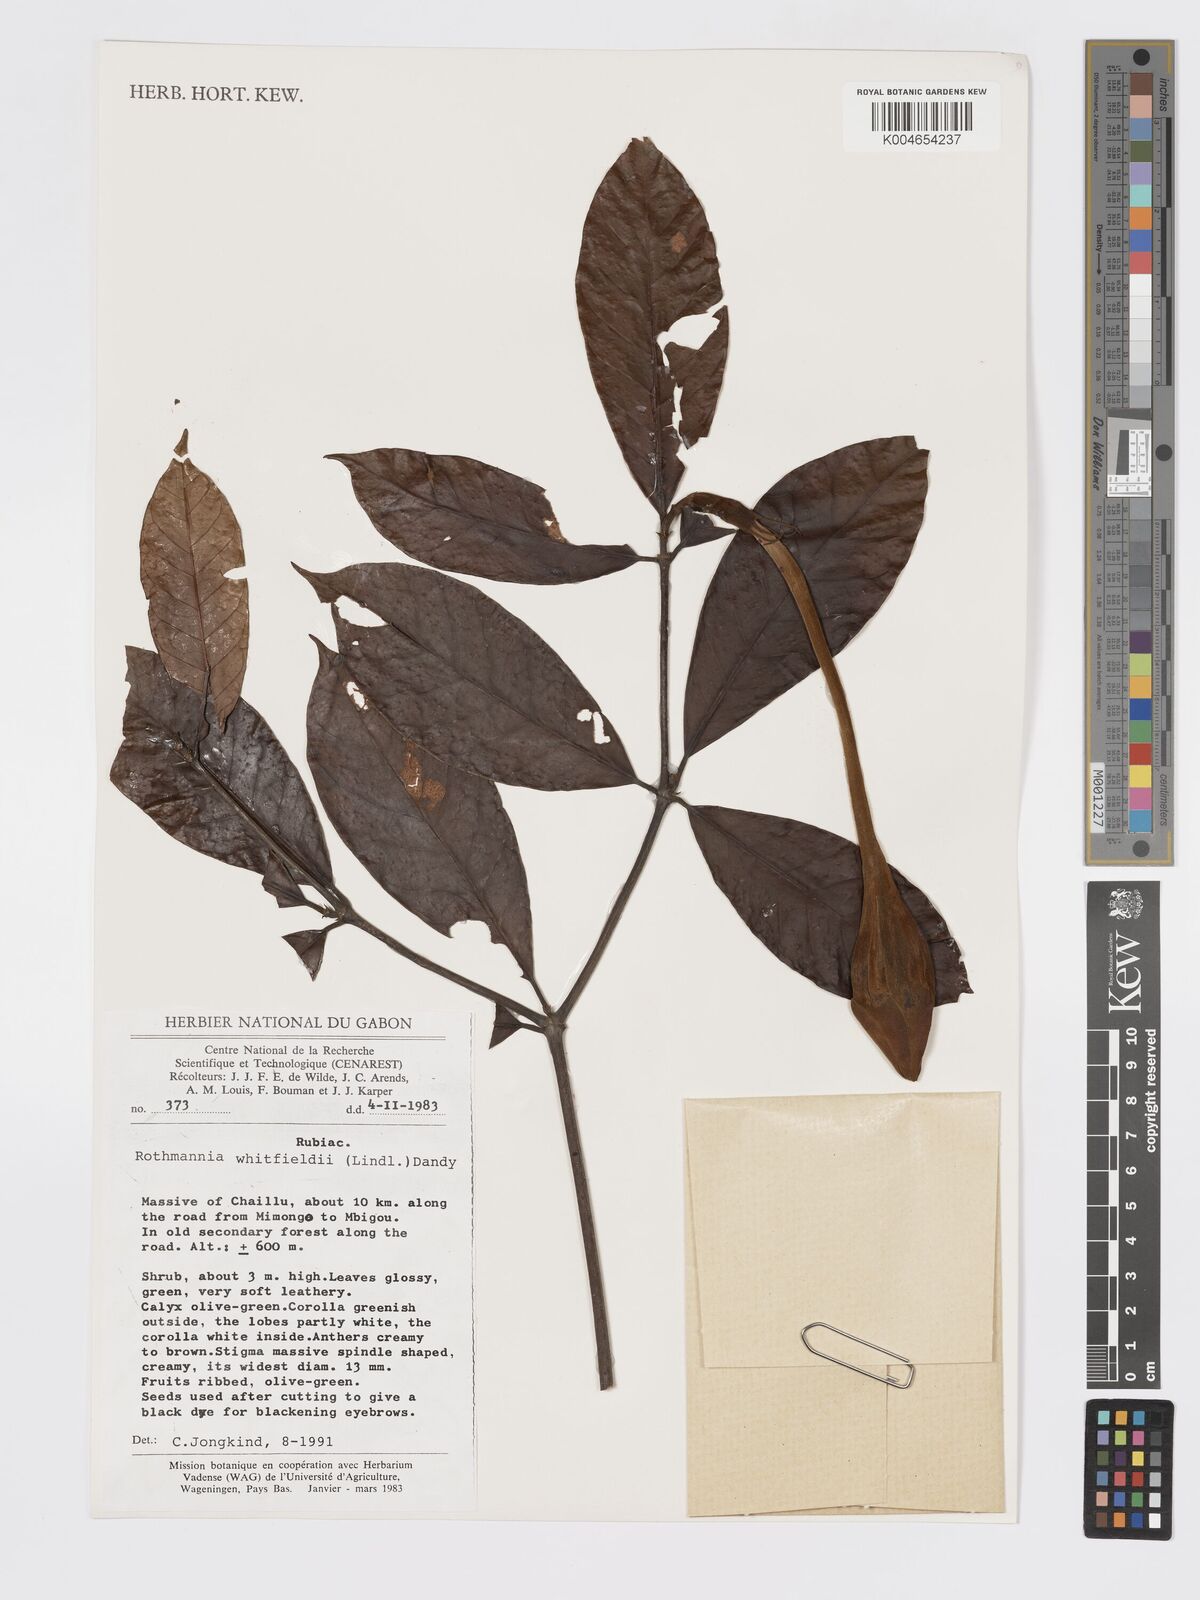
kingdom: Plantae
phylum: Tracheophyta
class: Magnoliopsida
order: Gentianales
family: Rubiaceae
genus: Rothmannia
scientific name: Rothmannia whitfieldii
